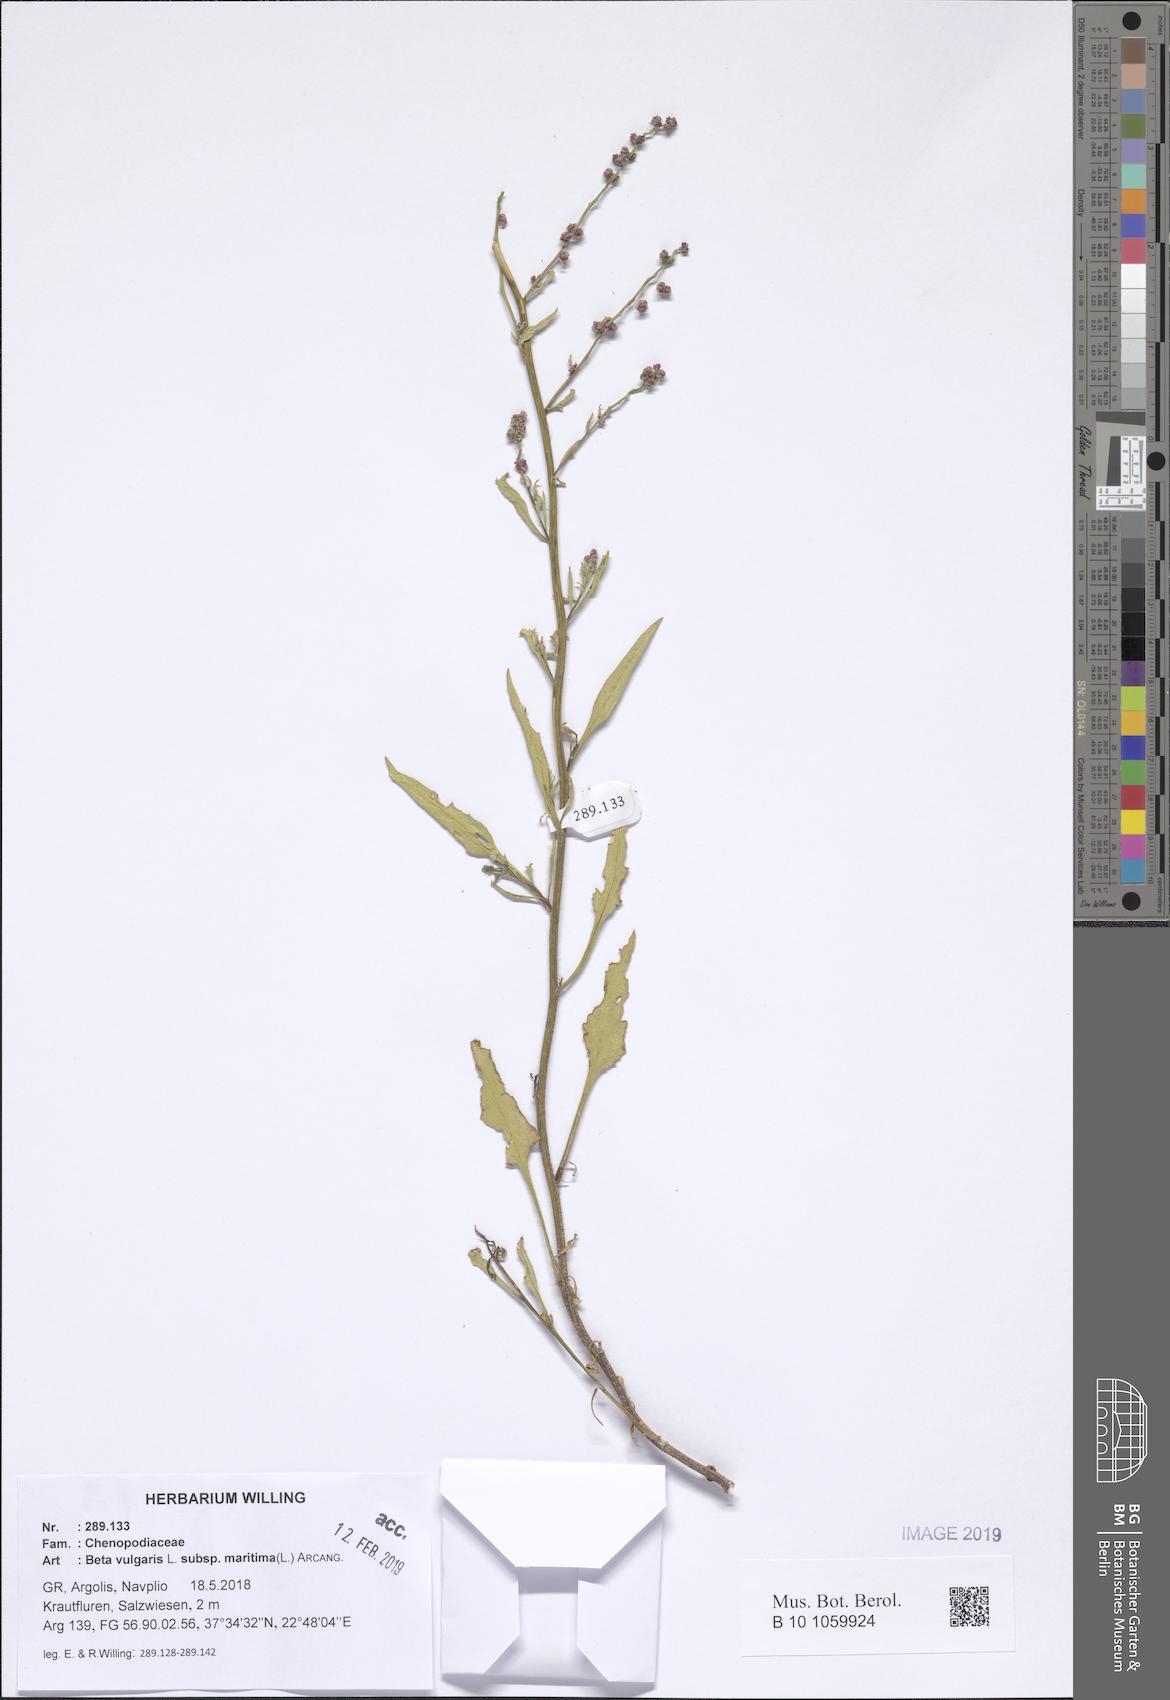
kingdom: Plantae
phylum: Tracheophyta
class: Magnoliopsida
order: Caryophyllales
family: Amaranthaceae
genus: Beta
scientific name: Beta maritima
